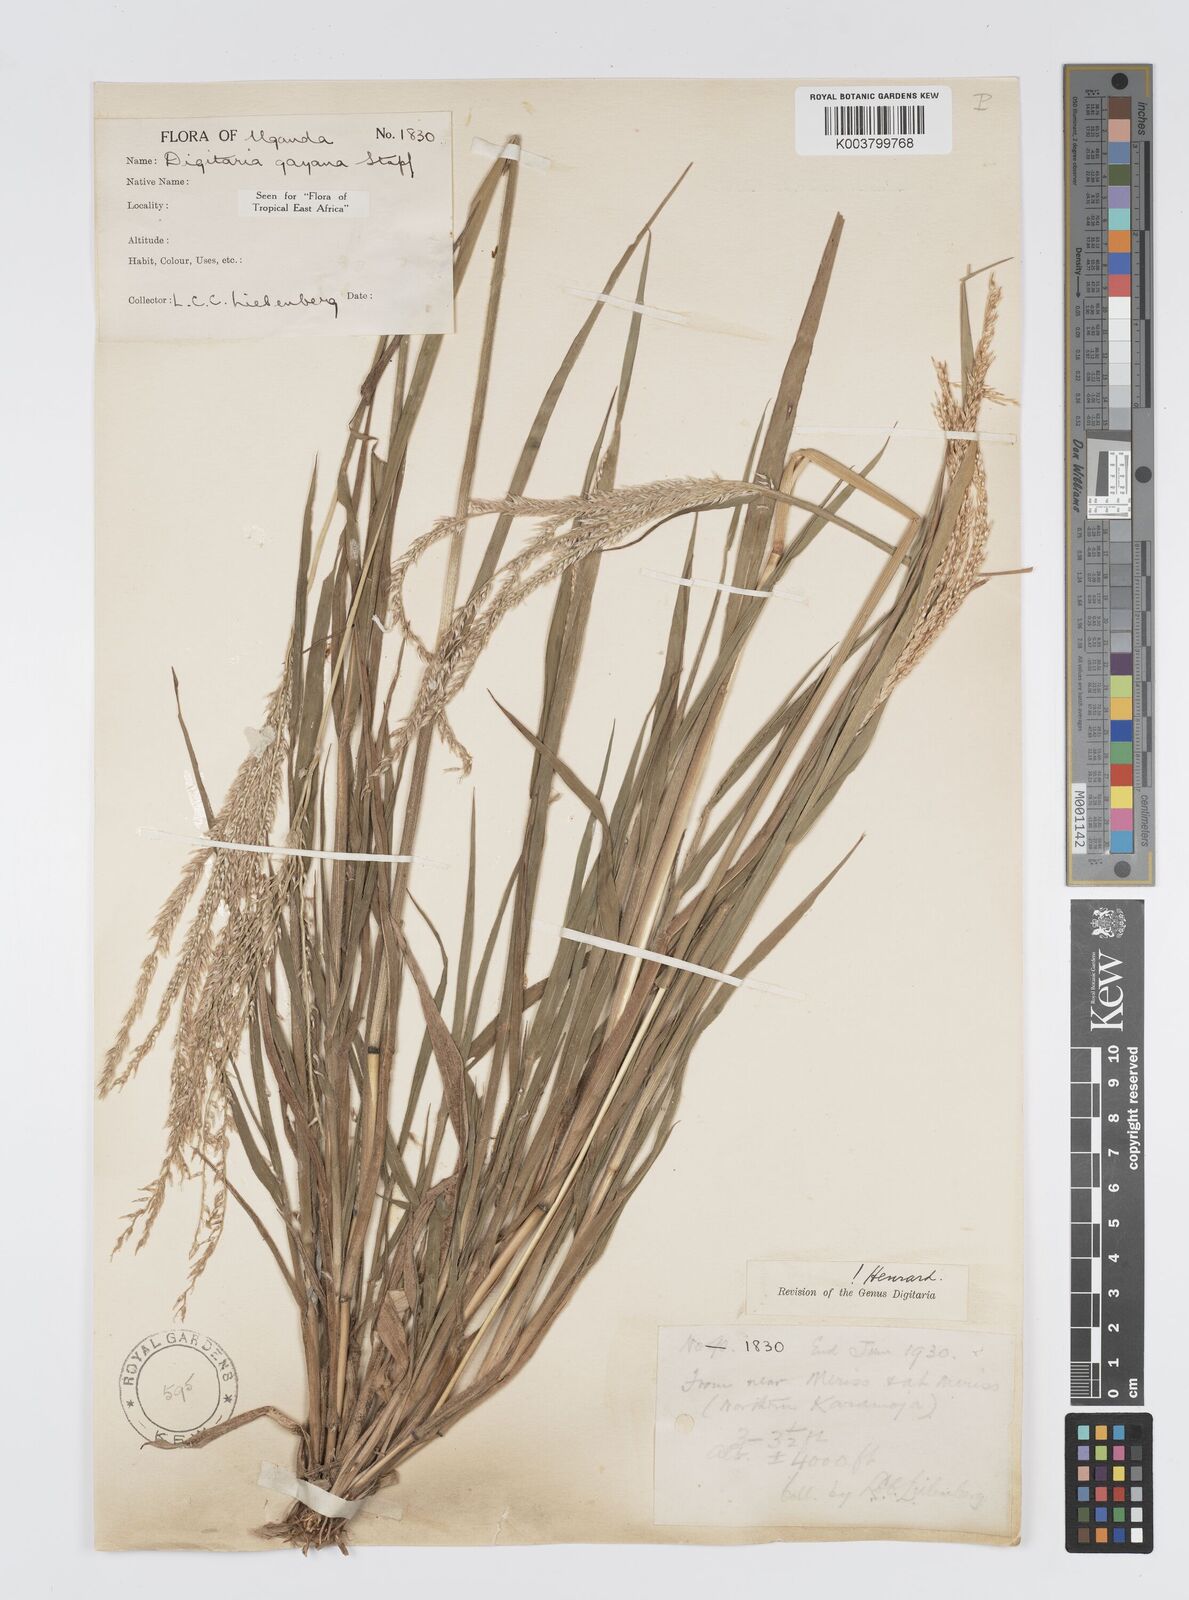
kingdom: Plantae
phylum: Tracheophyta
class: Liliopsida
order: Poales
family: Poaceae
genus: Digitaria
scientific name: Digitaria gayana
